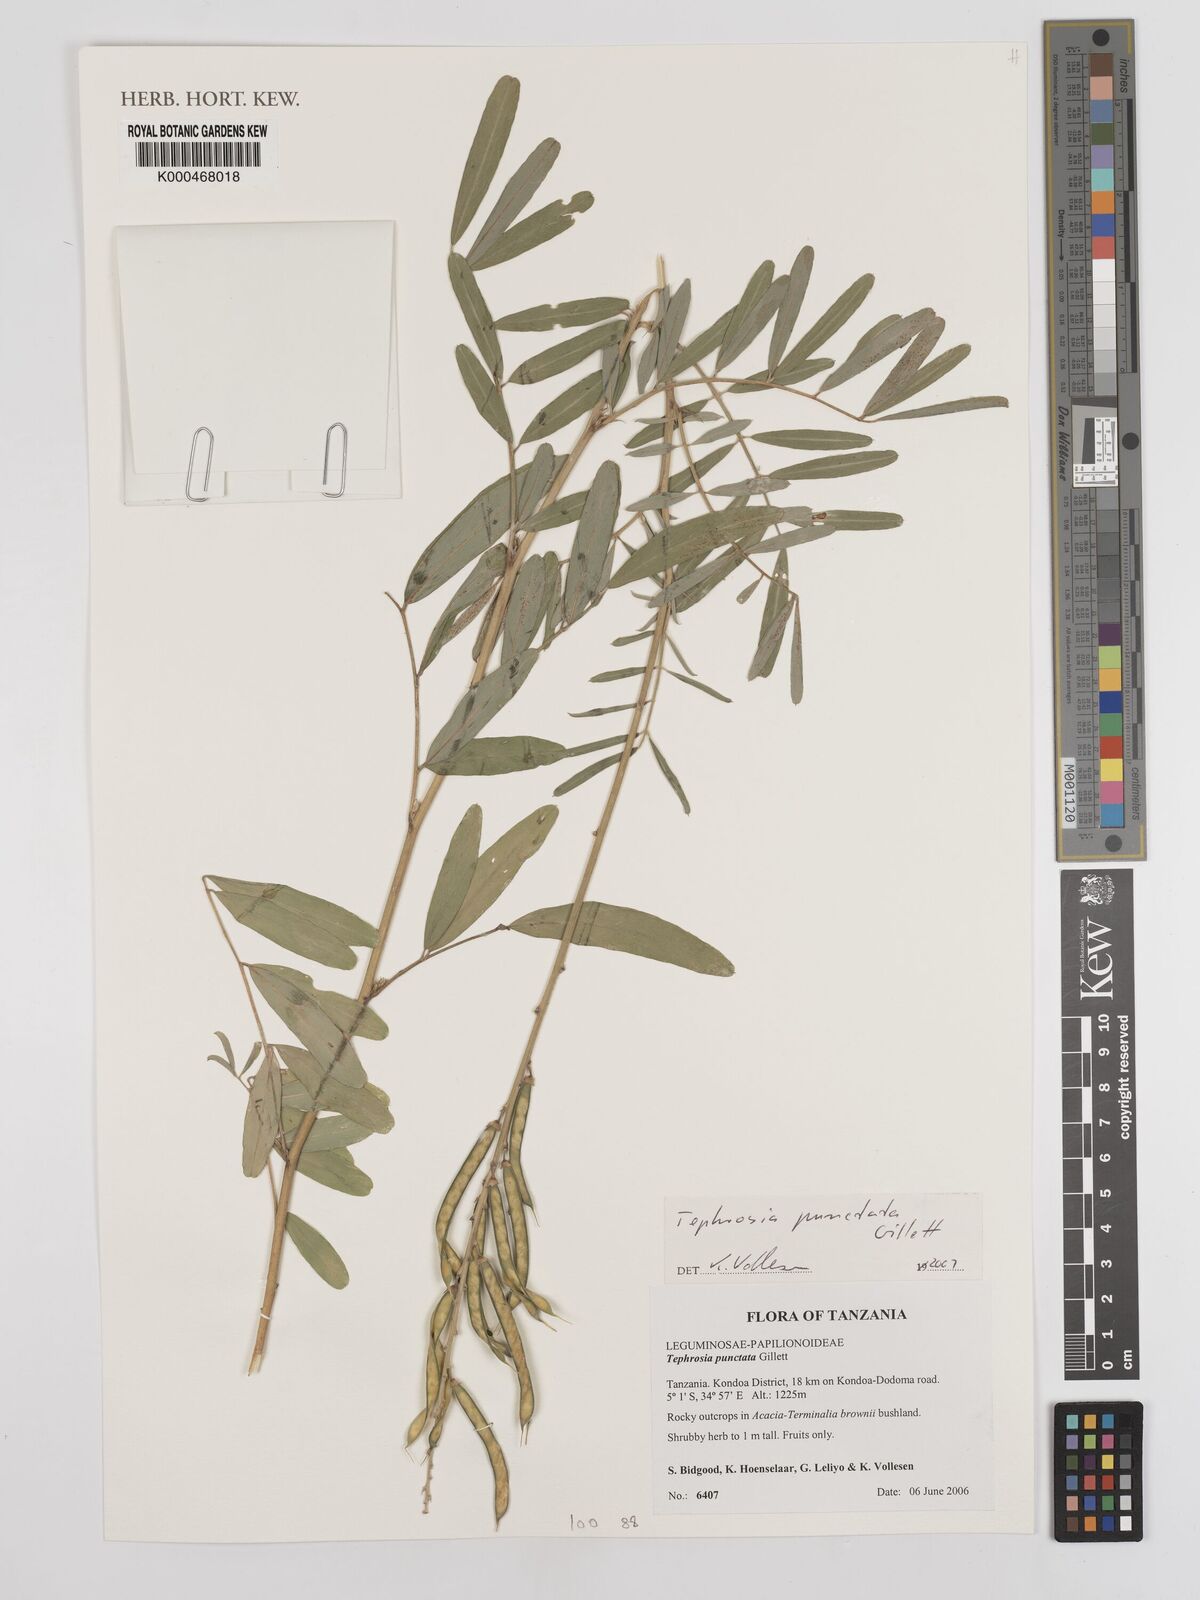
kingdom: Plantae
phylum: Tracheophyta
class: Magnoliopsida
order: Fabales
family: Fabaceae
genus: Tephrosia
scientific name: Tephrosia punctata
